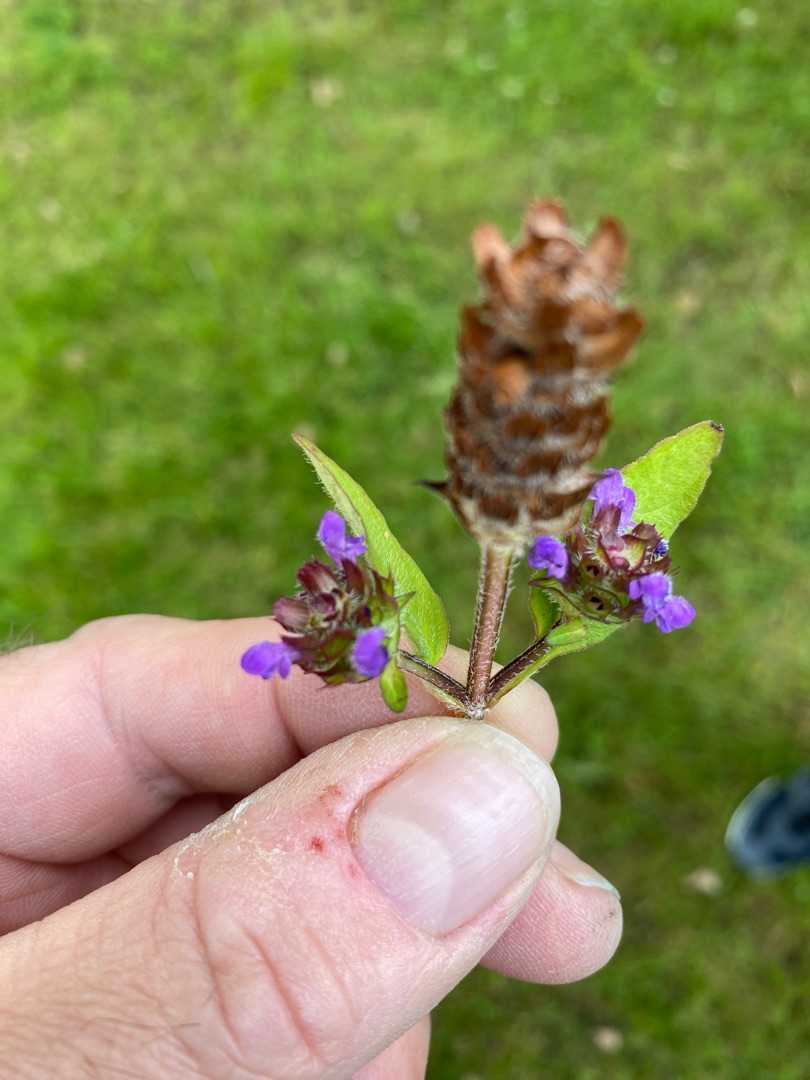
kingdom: Plantae
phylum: Tracheophyta
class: Magnoliopsida
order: Lamiales
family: Lamiaceae
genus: Prunella
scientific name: Prunella vulgaris
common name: Almindelig brunelle
